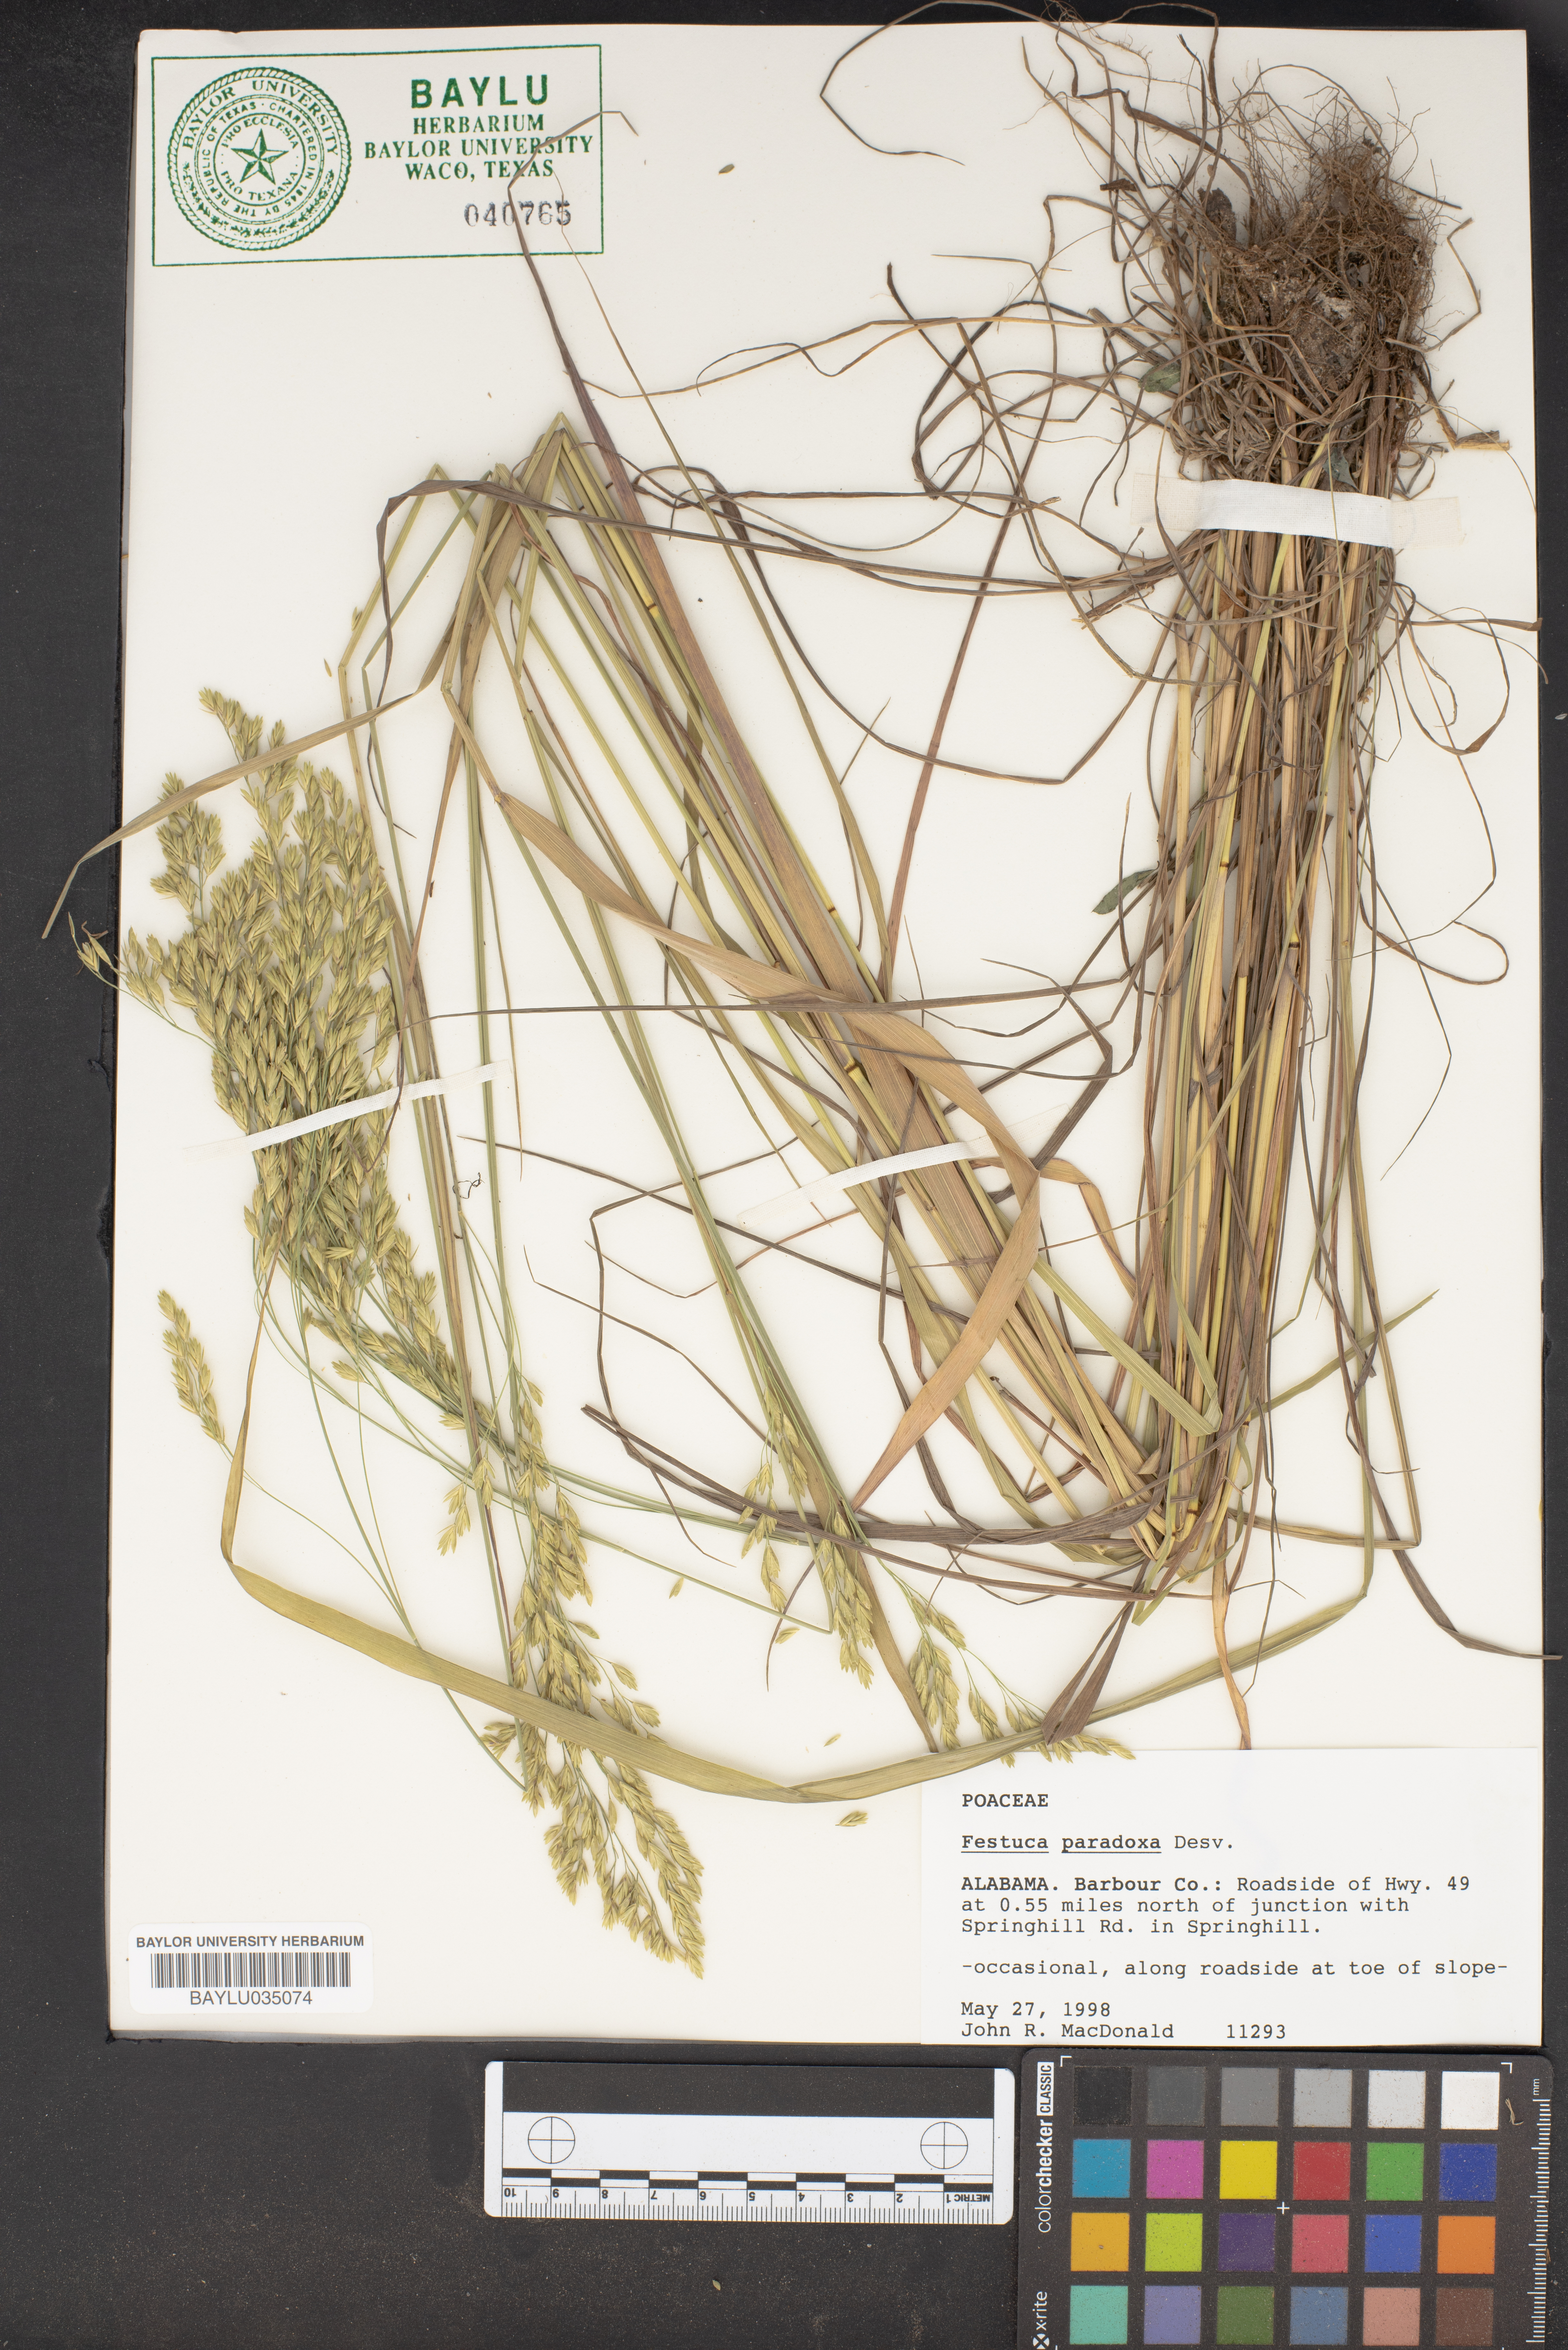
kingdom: Plantae
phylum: Tracheophyta
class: Liliopsida
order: Poales
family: Poaceae
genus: Festuca
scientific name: Festuca paradoxa
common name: Cluster fescue
